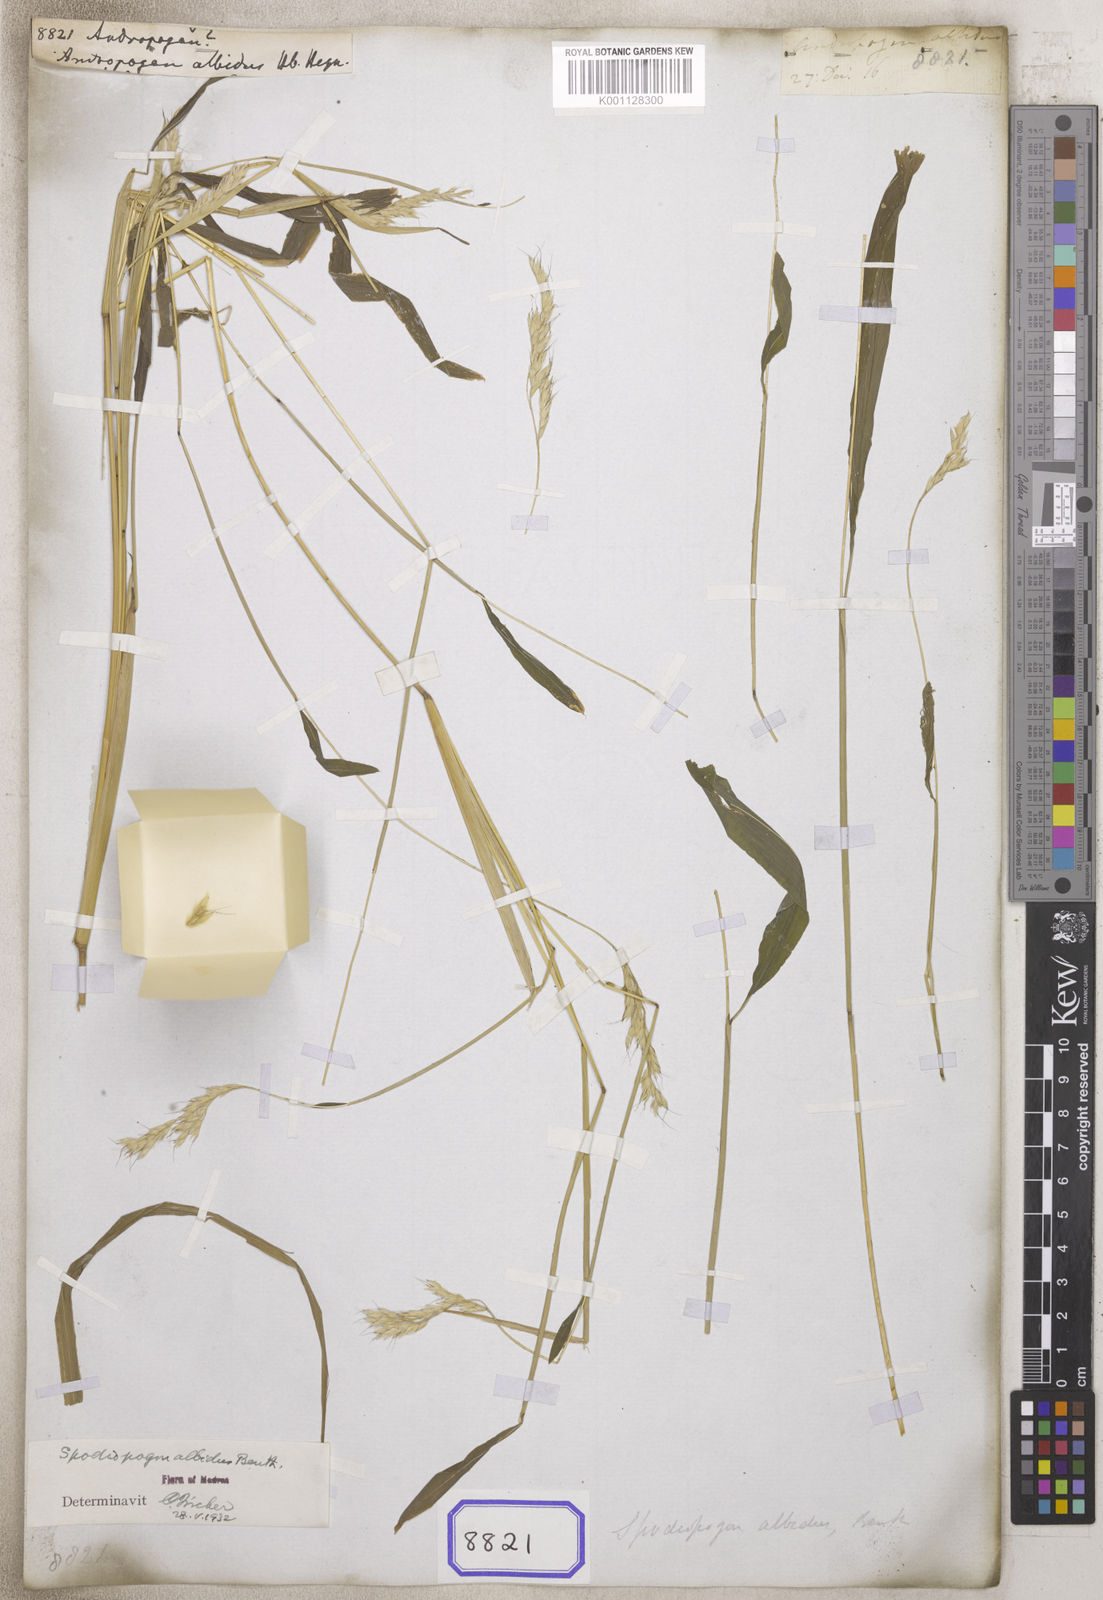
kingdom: Plantae
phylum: Tracheophyta
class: Liliopsida
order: Poales
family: Poaceae
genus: Andropogon
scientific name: Andropogon
